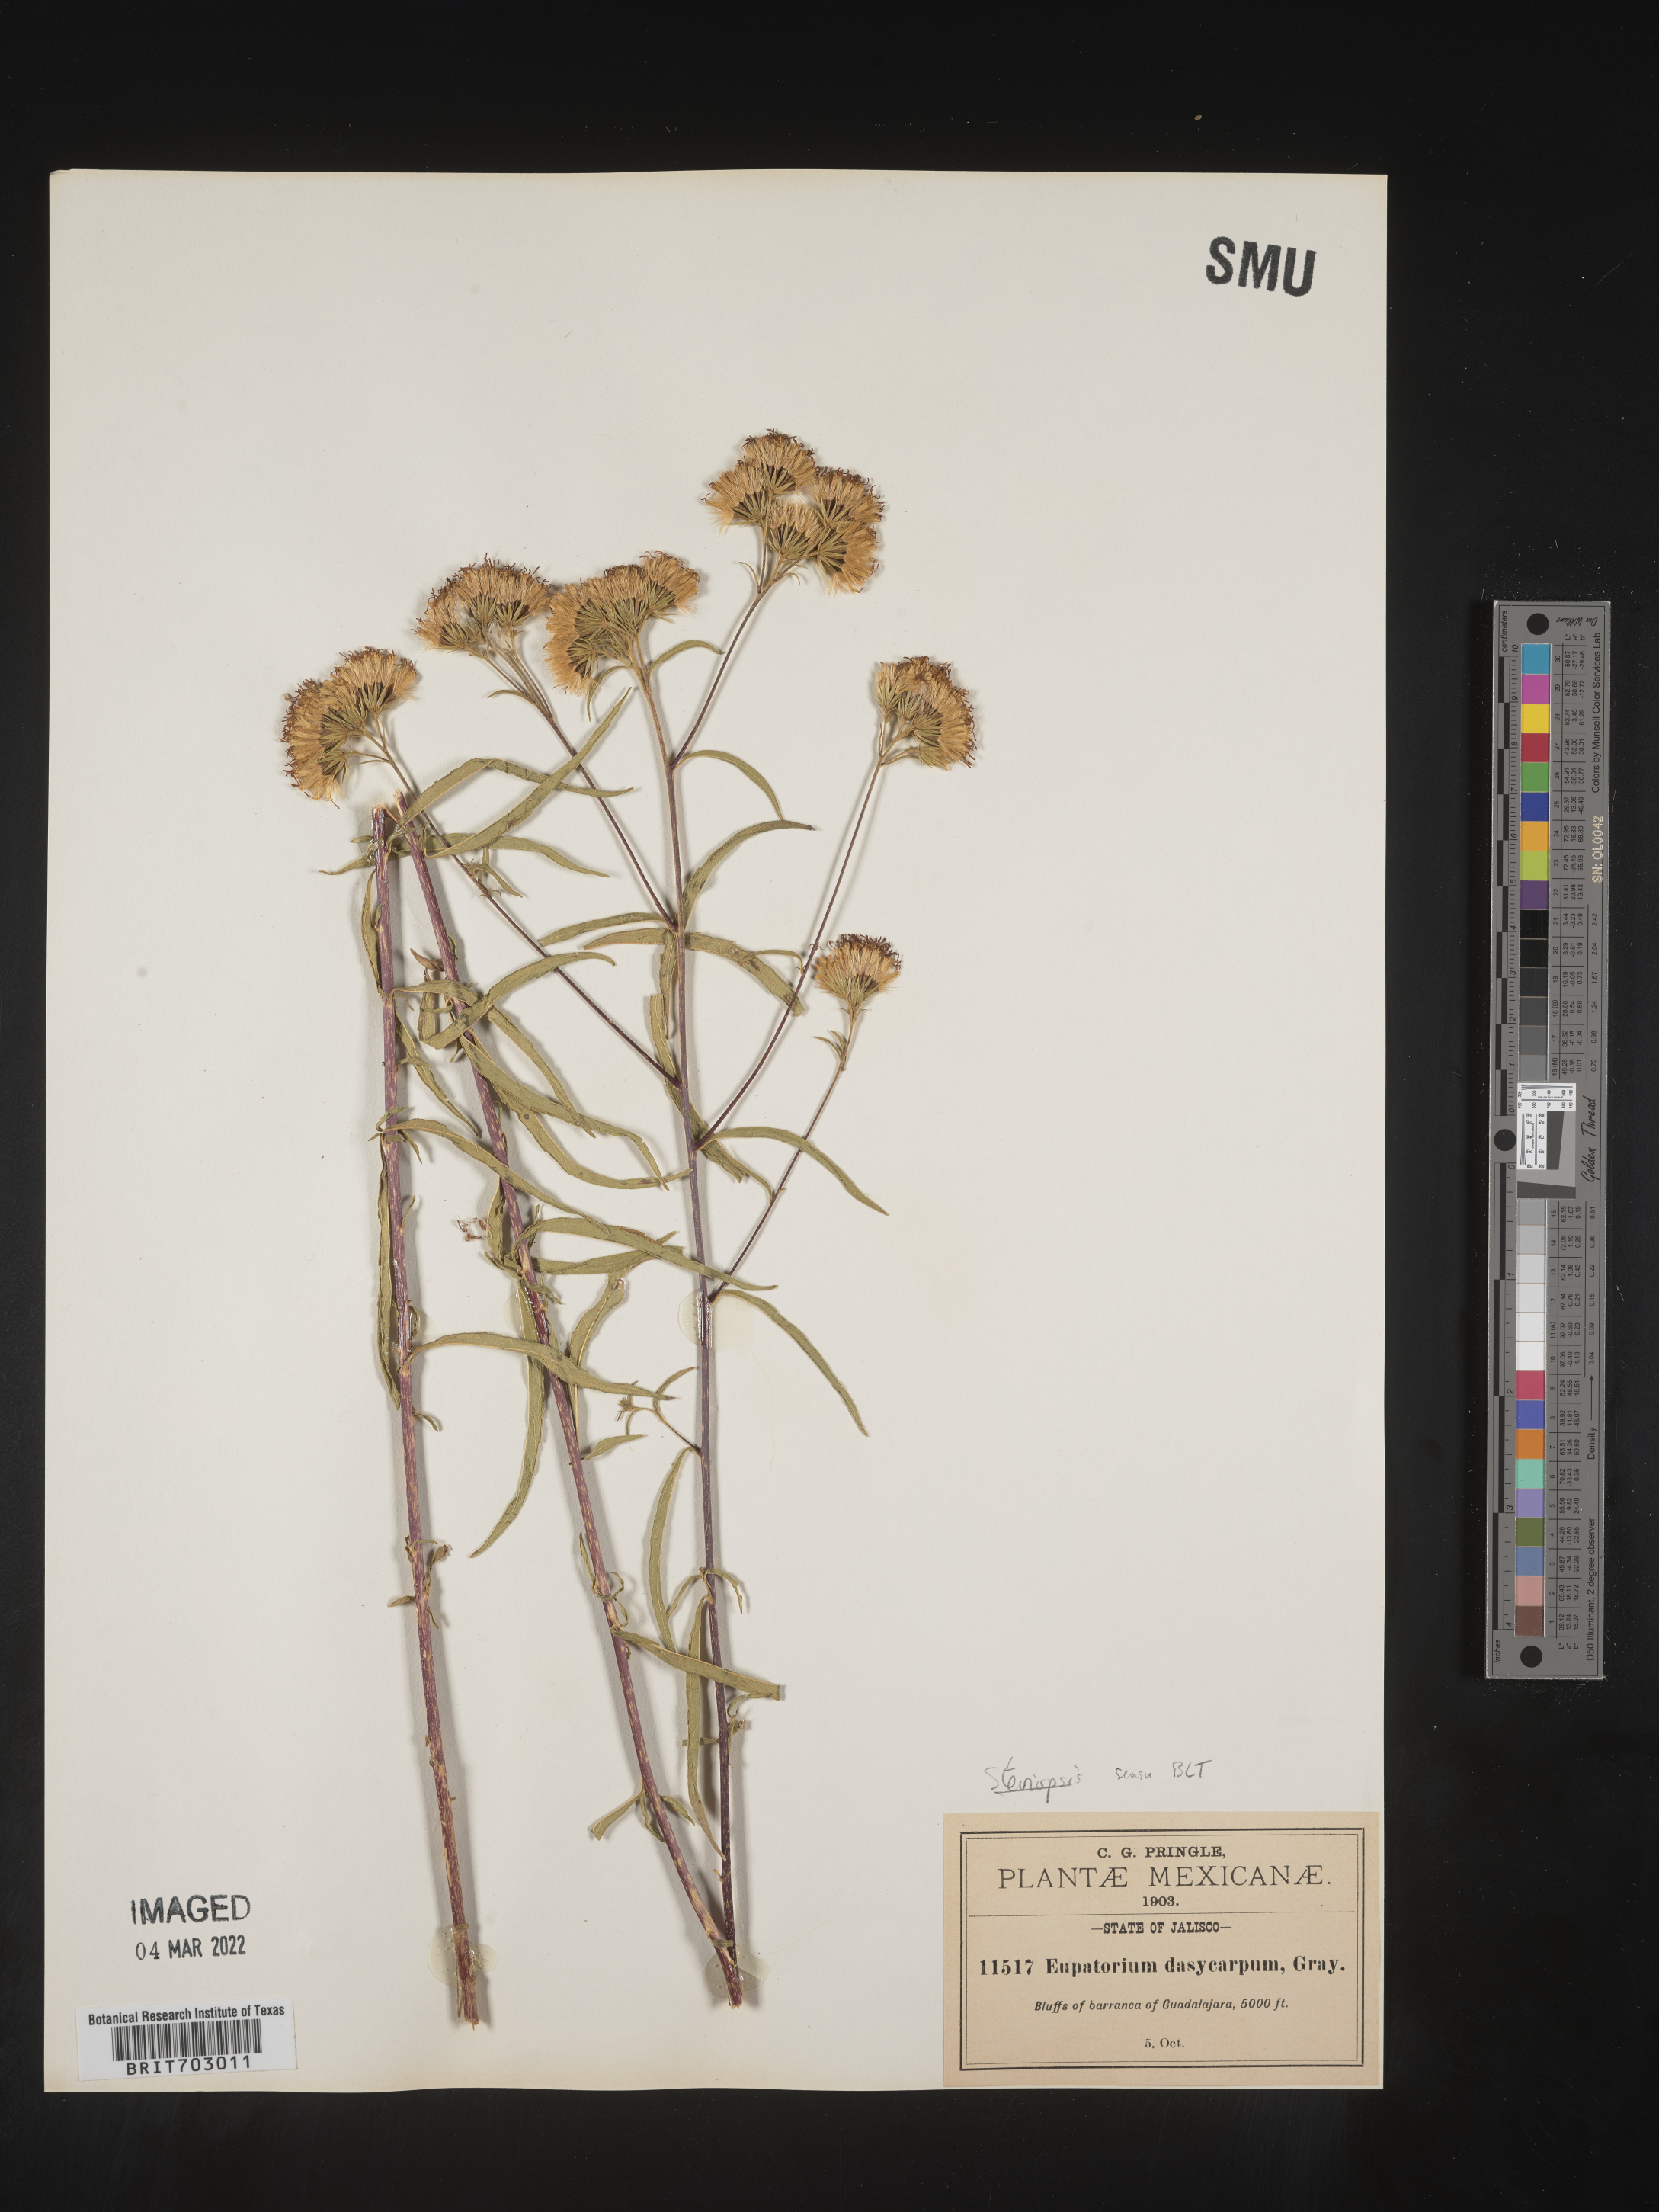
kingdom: Plantae
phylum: Tracheophyta
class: Magnoliopsida
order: Asterales
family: Asteraceae
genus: Eupatorium
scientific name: Eupatorium
